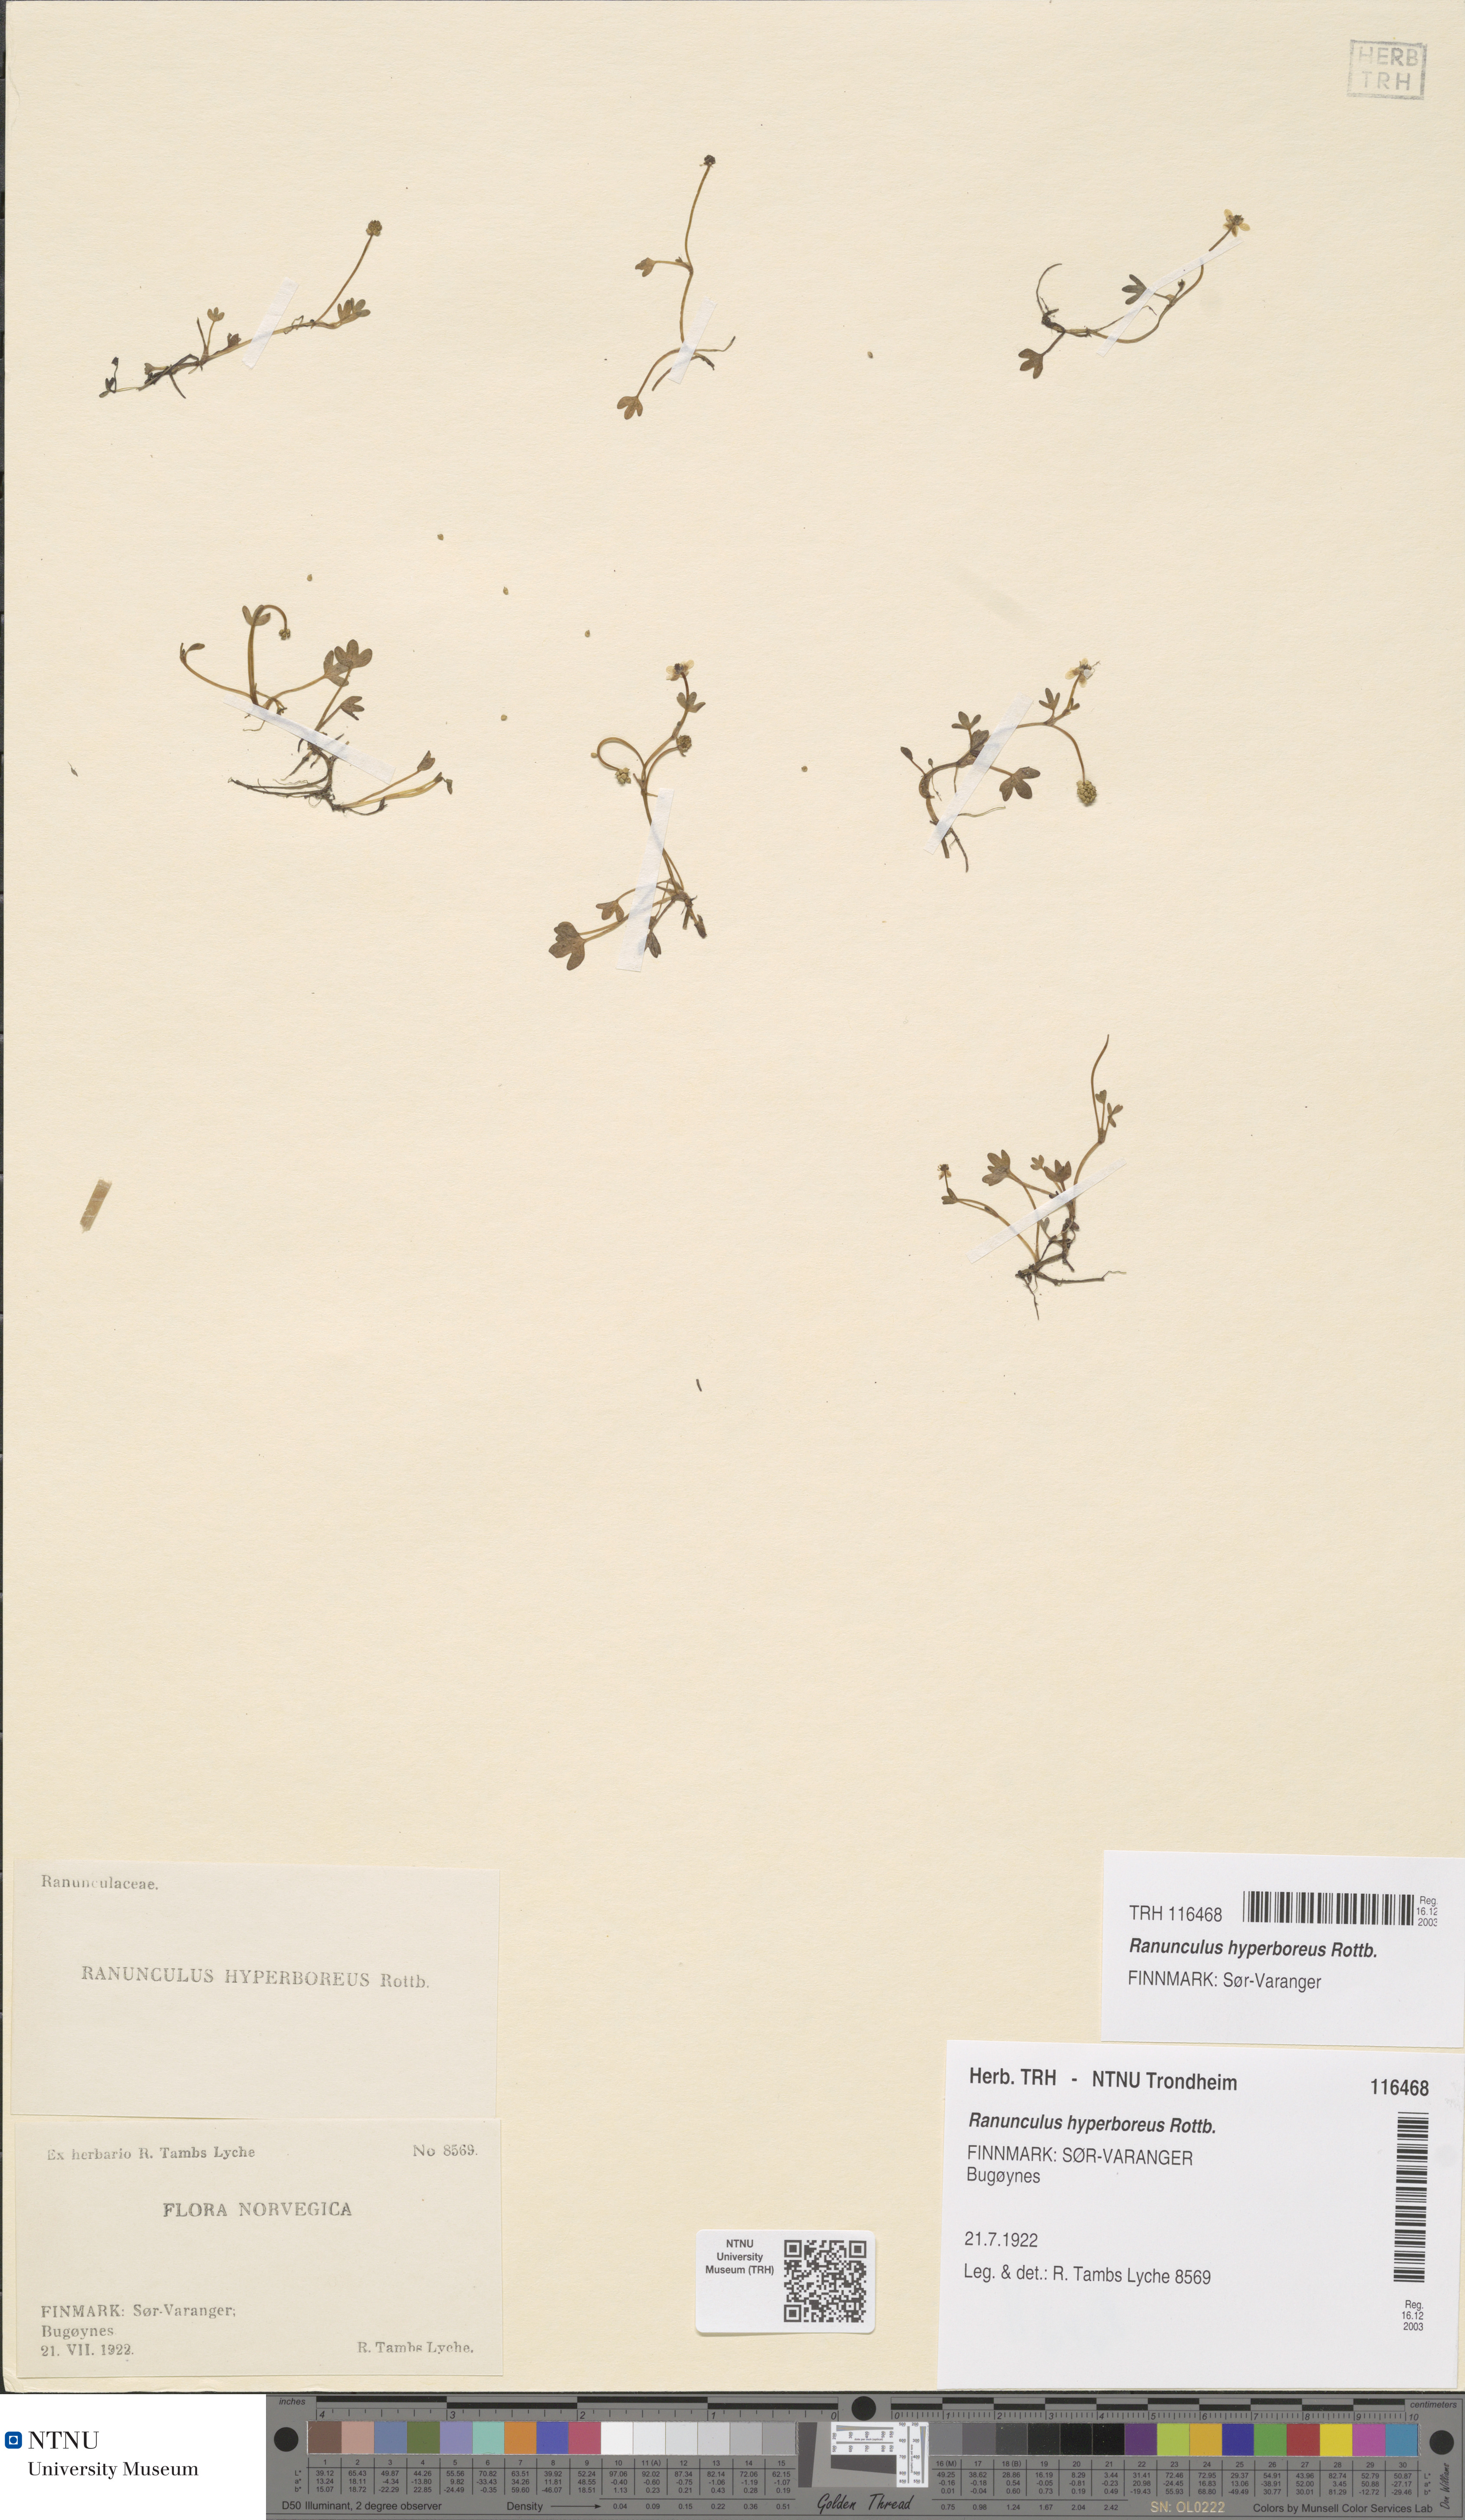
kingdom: Plantae
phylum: Tracheophyta
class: Magnoliopsida
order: Ranunculales
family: Ranunculaceae
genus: Ranunculus
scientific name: Ranunculus hyperboreus
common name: Arctic buttercup
